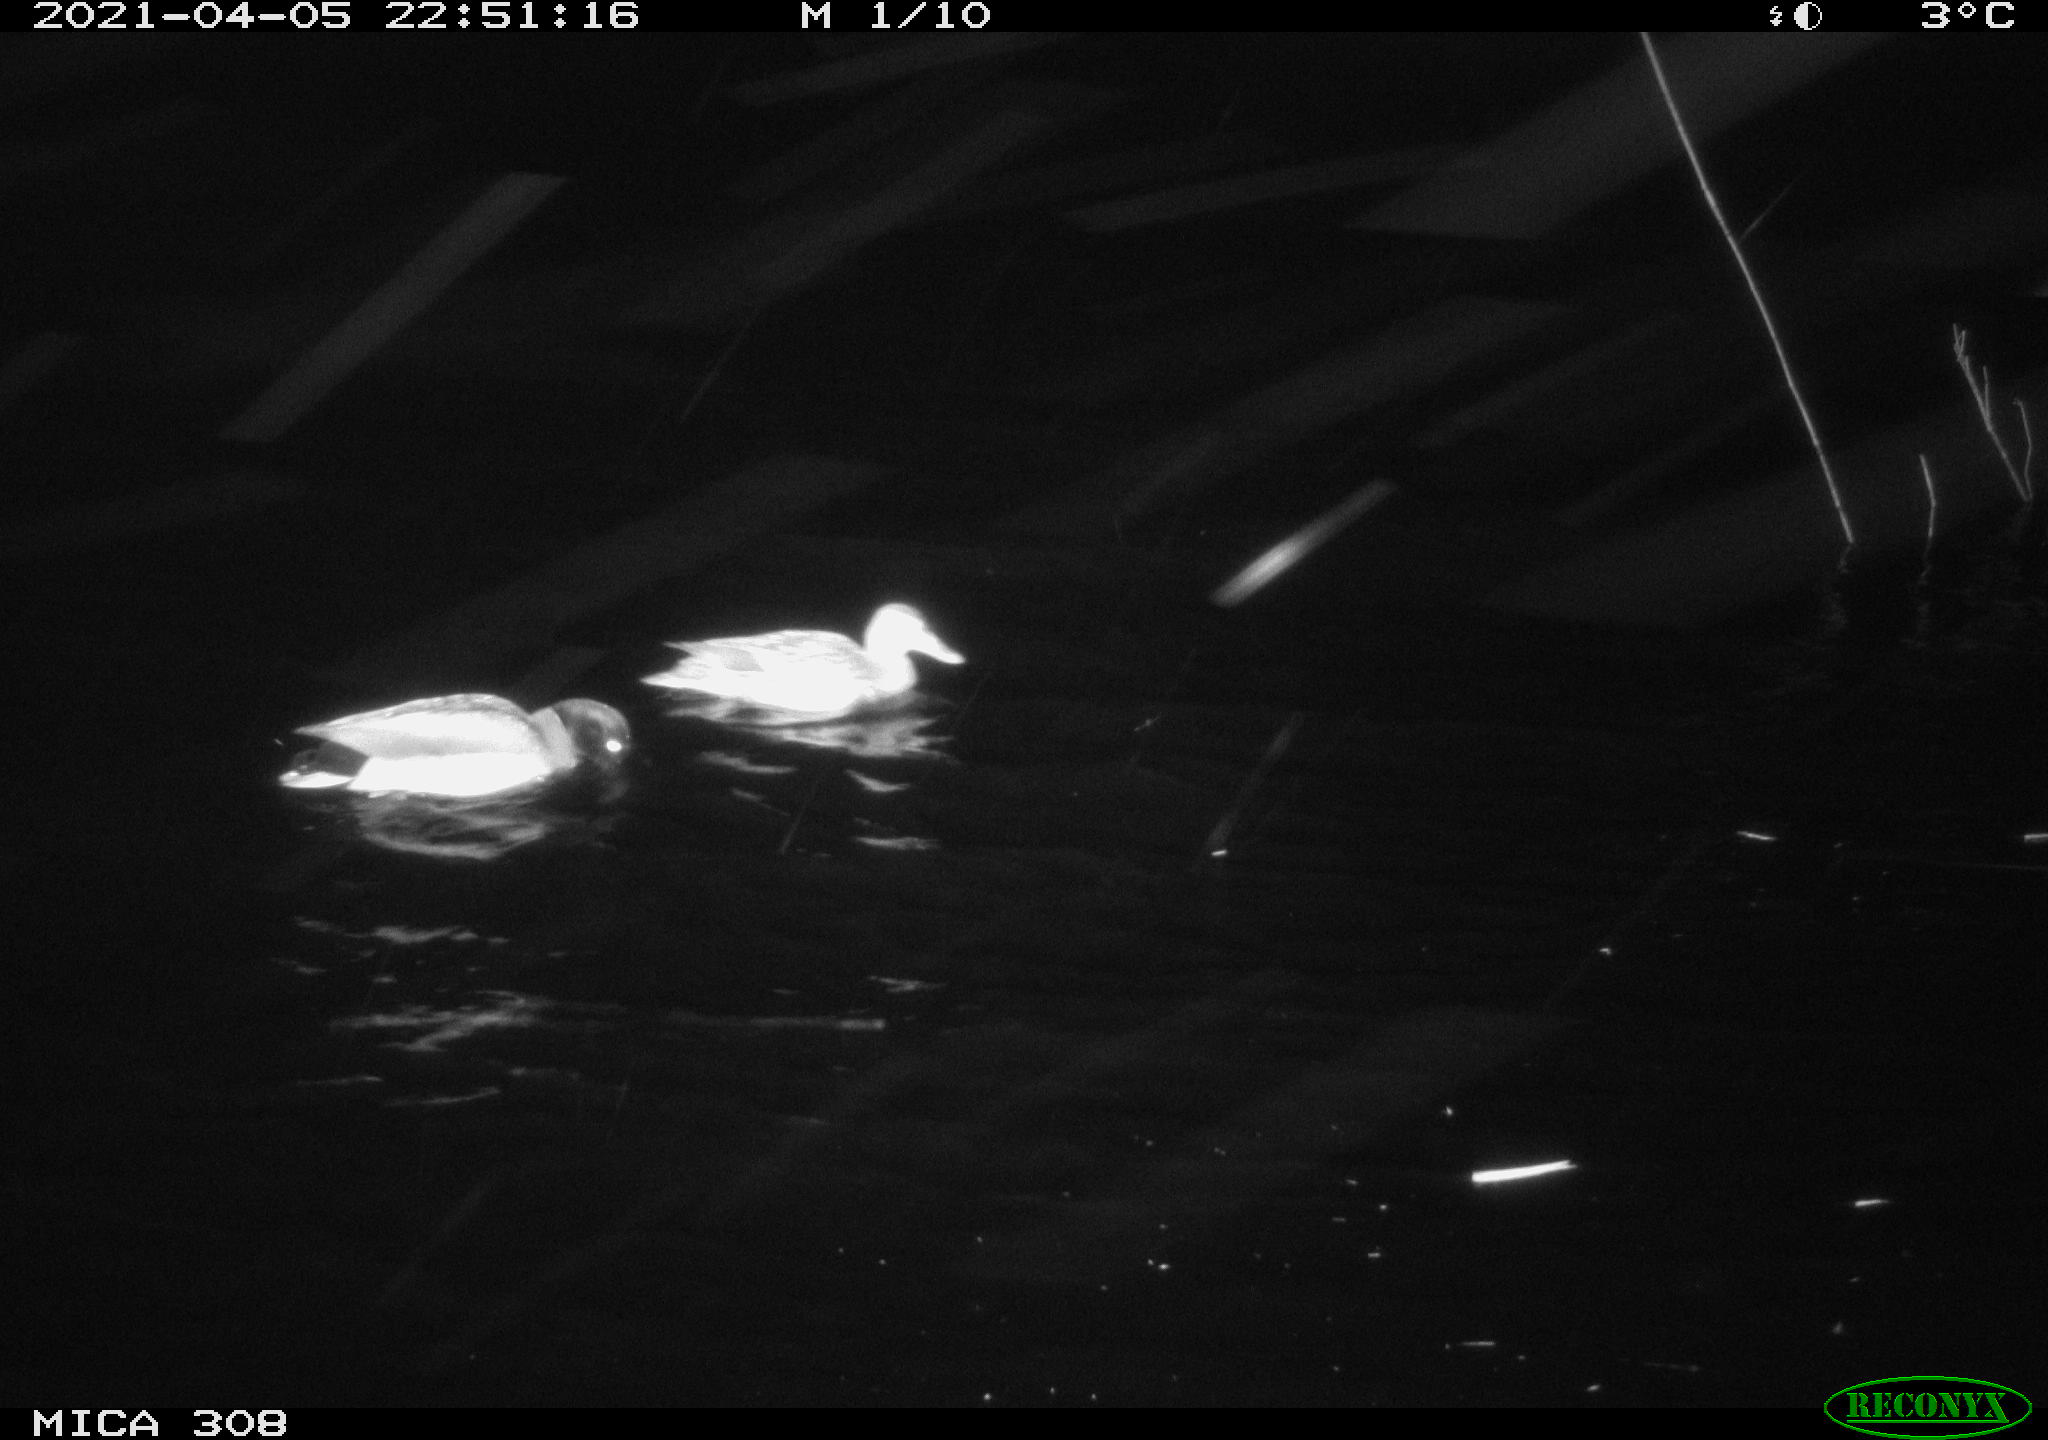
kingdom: Animalia
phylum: Chordata
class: Aves
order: Anseriformes
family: Anatidae
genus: Mareca
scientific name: Mareca strepera
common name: Gadwall
